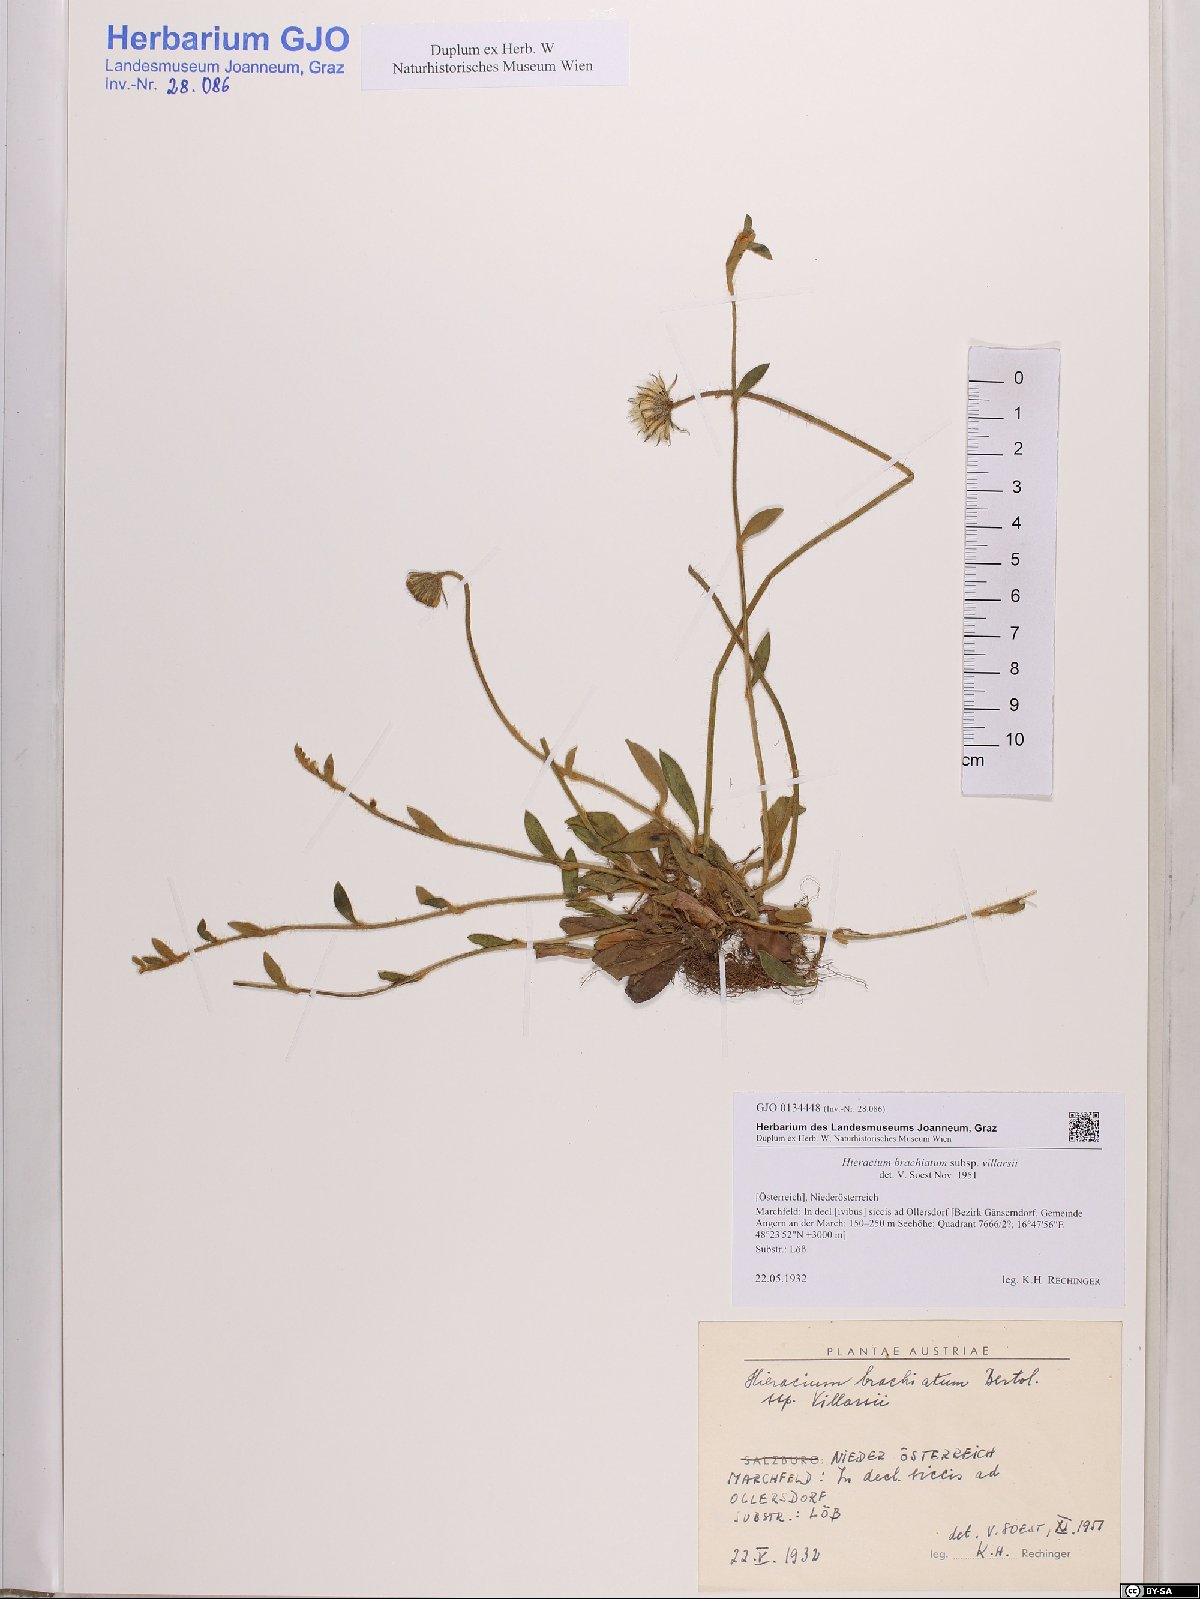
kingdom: Plantae
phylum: Tracheophyta
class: Magnoliopsida
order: Asterales
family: Asteraceae
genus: Pilosella
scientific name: Pilosella acutifolia
